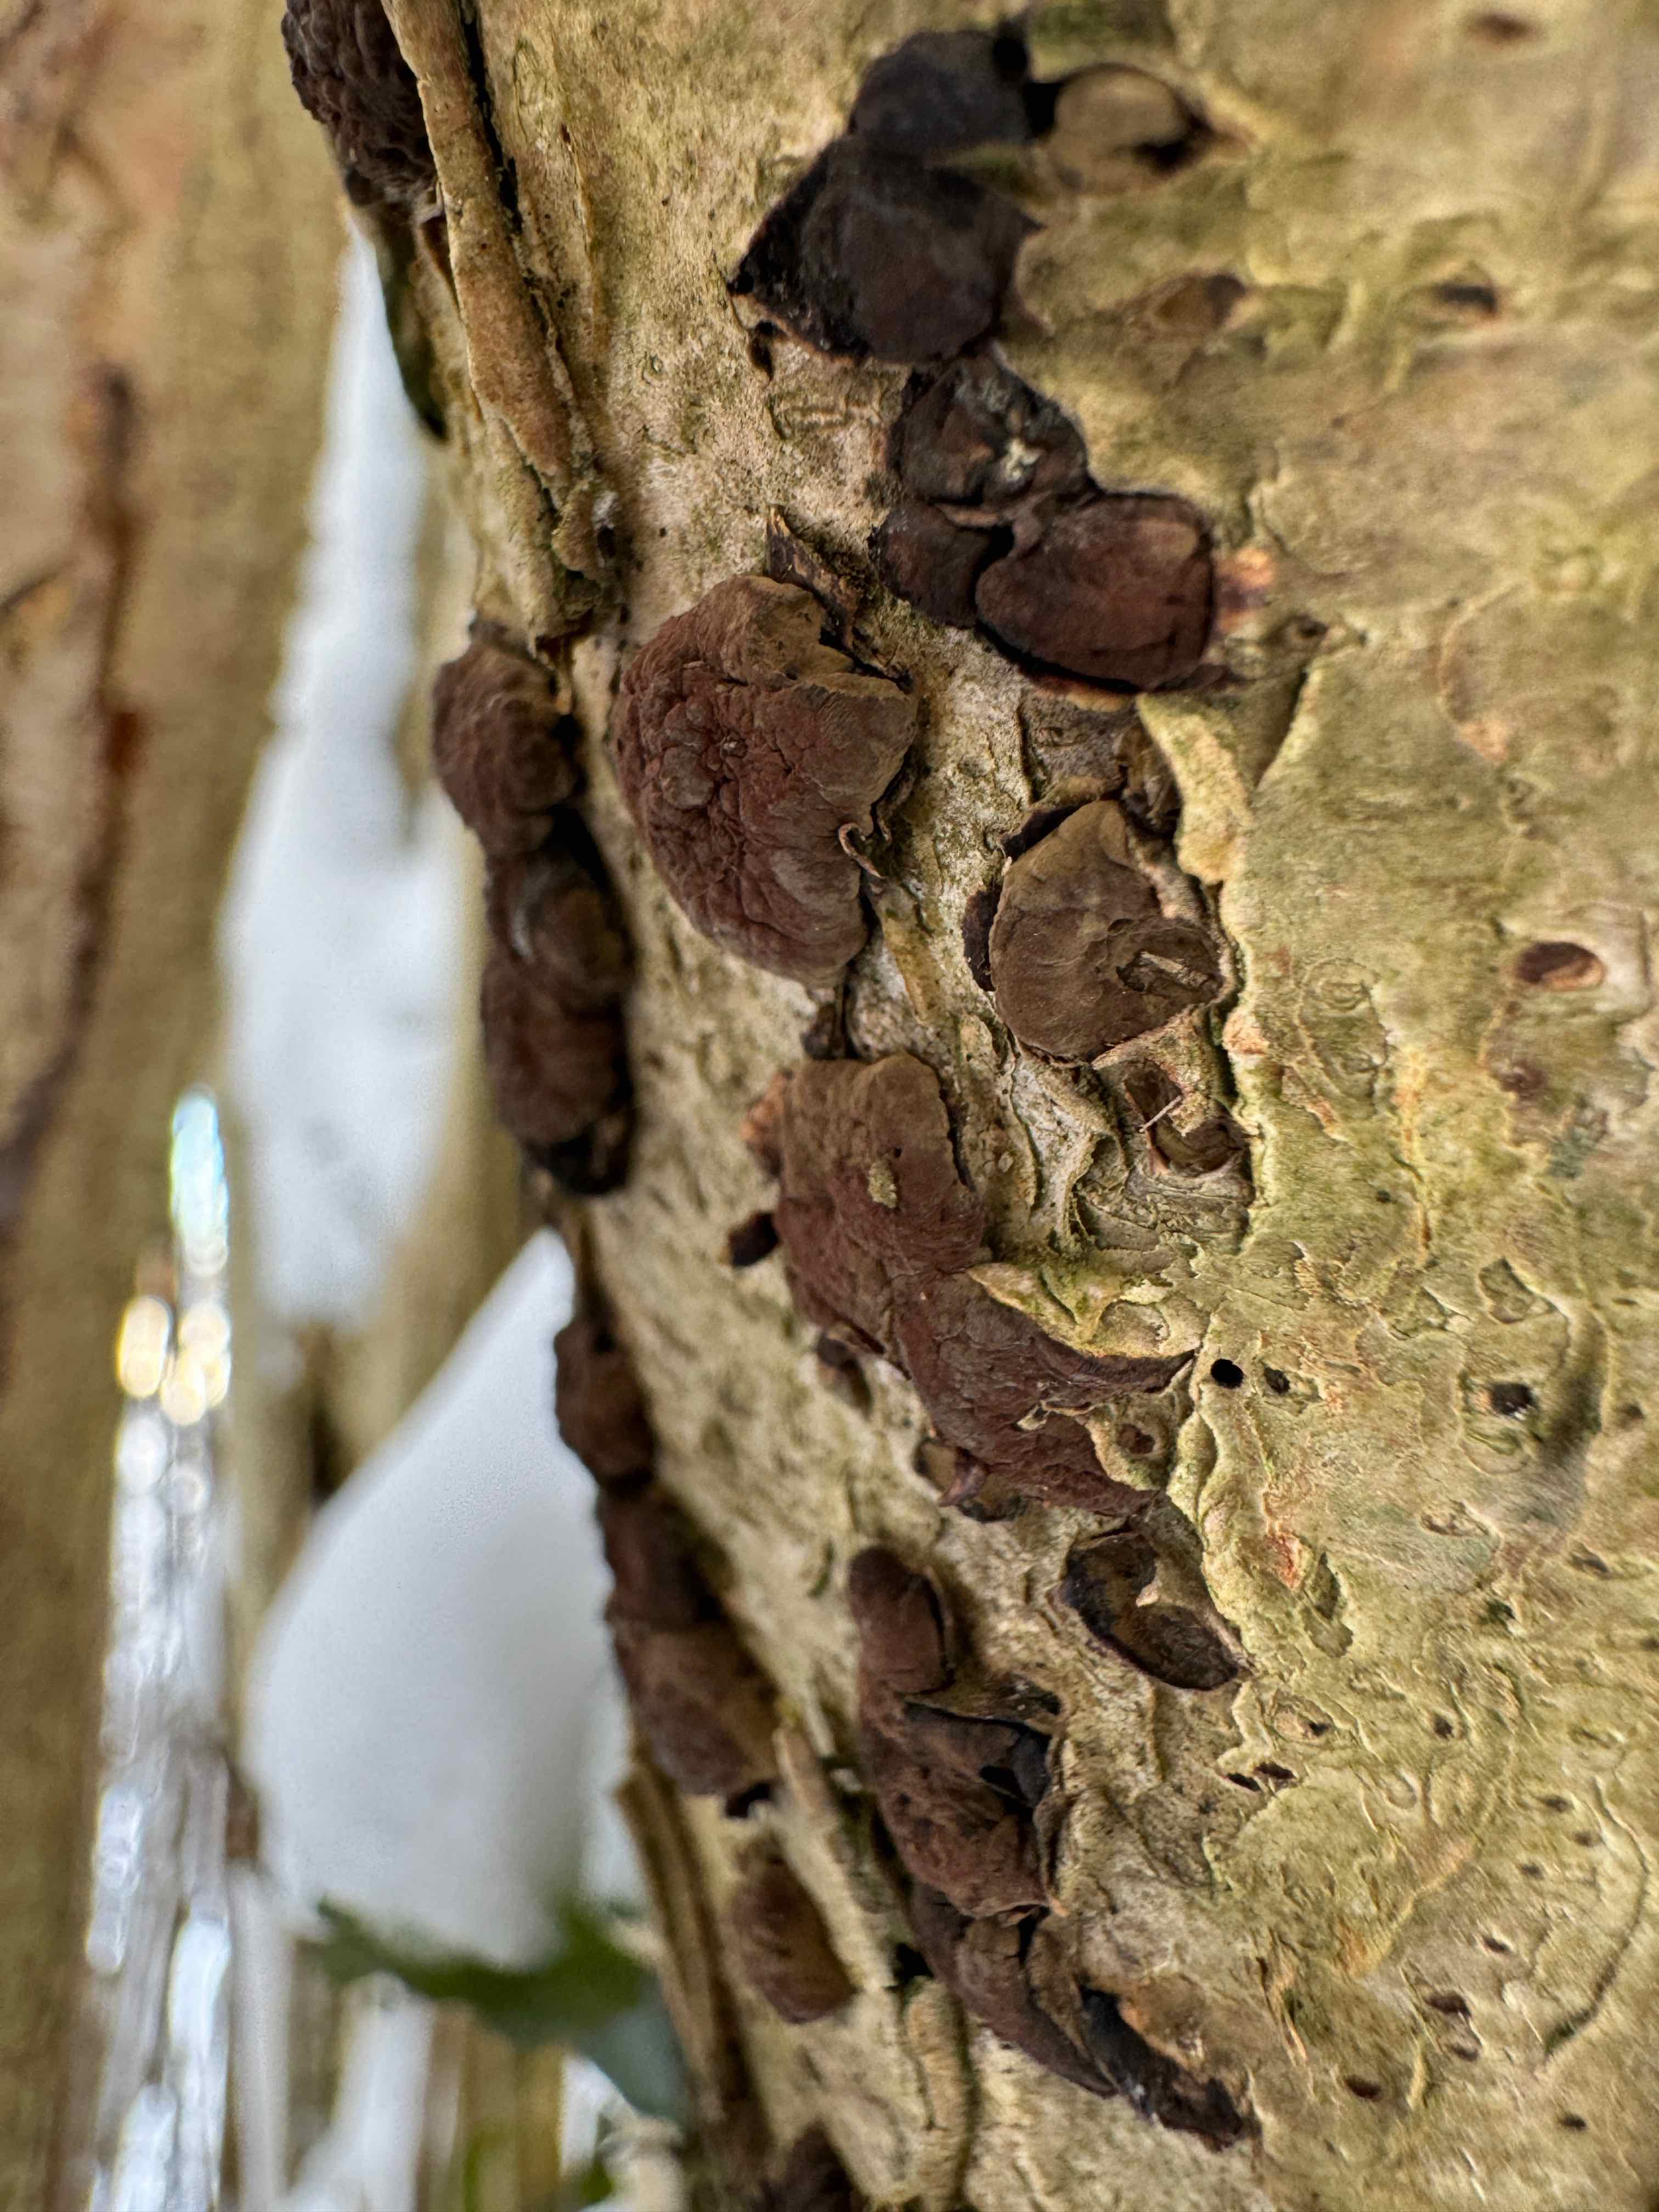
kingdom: Fungi
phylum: Ascomycota
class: Sordariomycetes
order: Xylariales
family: Hypoxylaceae
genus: Hypoxylon
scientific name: Hypoxylon fuscum
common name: kegleformet kulbær
